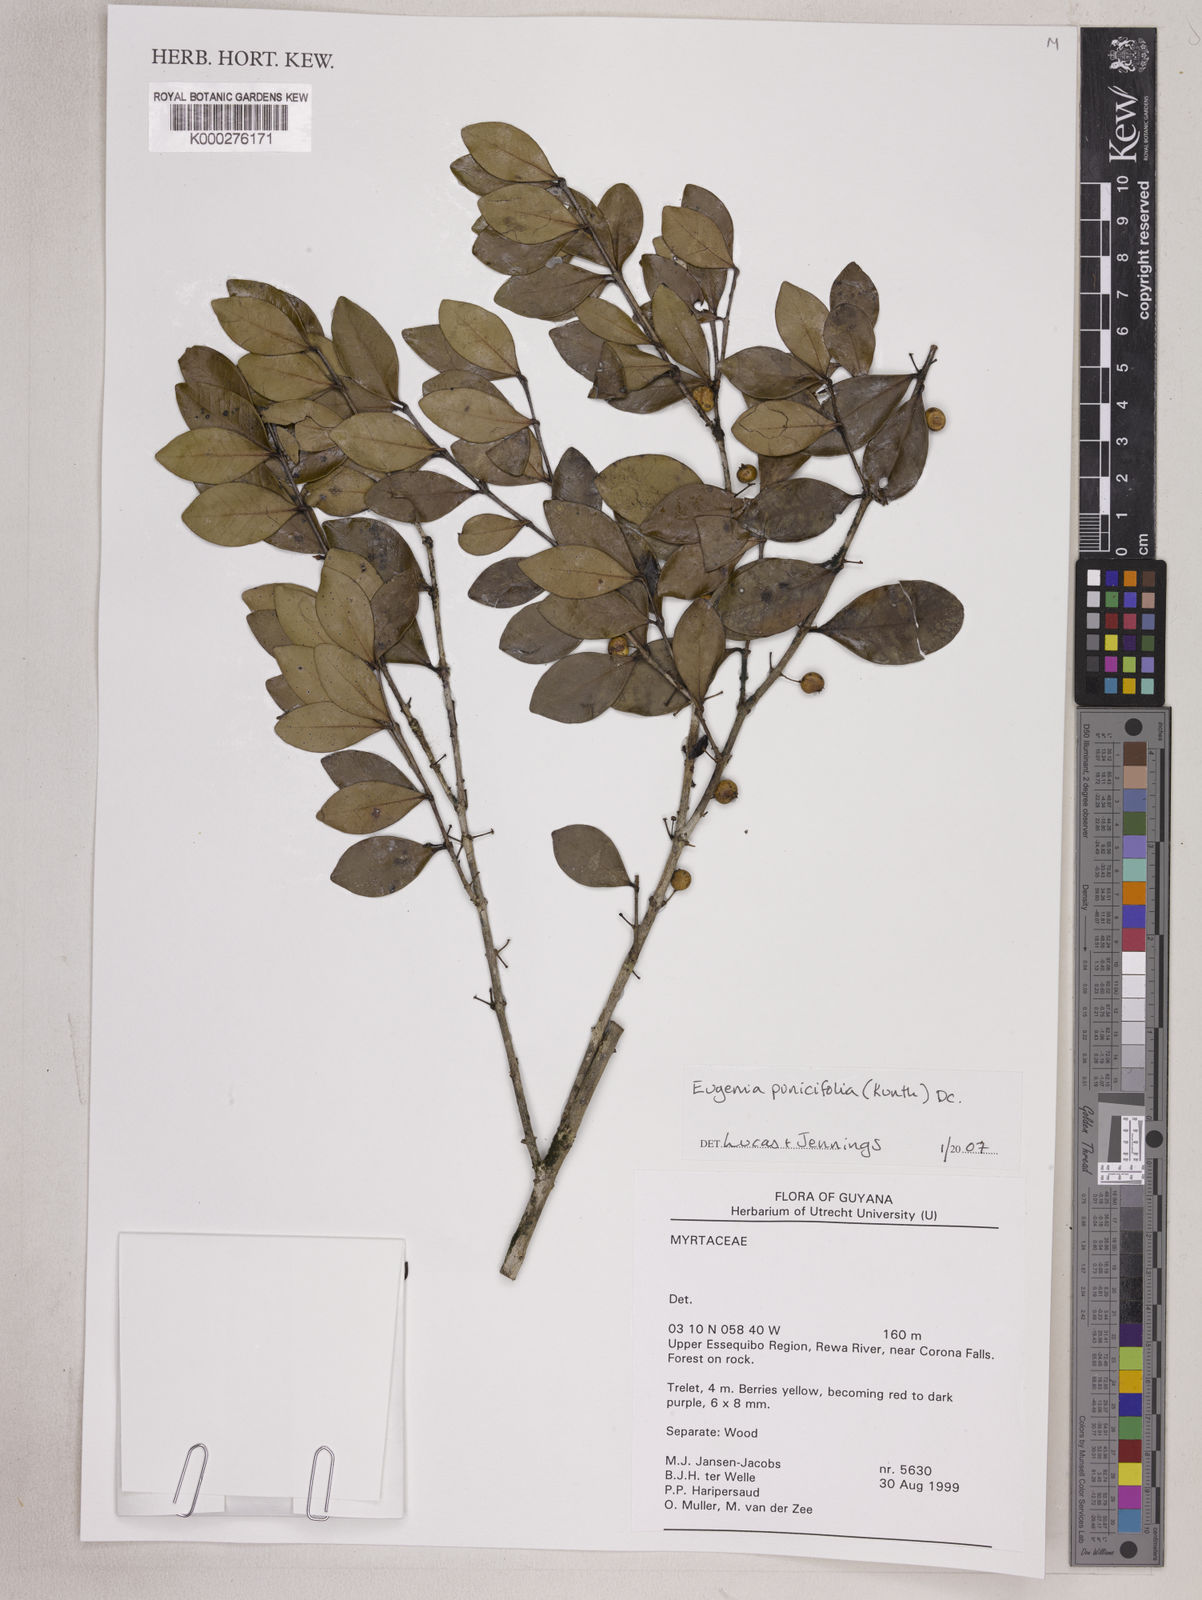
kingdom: Plantae
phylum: Tracheophyta
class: Magnoliopsida
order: Myrtales
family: Myrtaceae
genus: Eugenia
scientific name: Eugenia punicifolia
